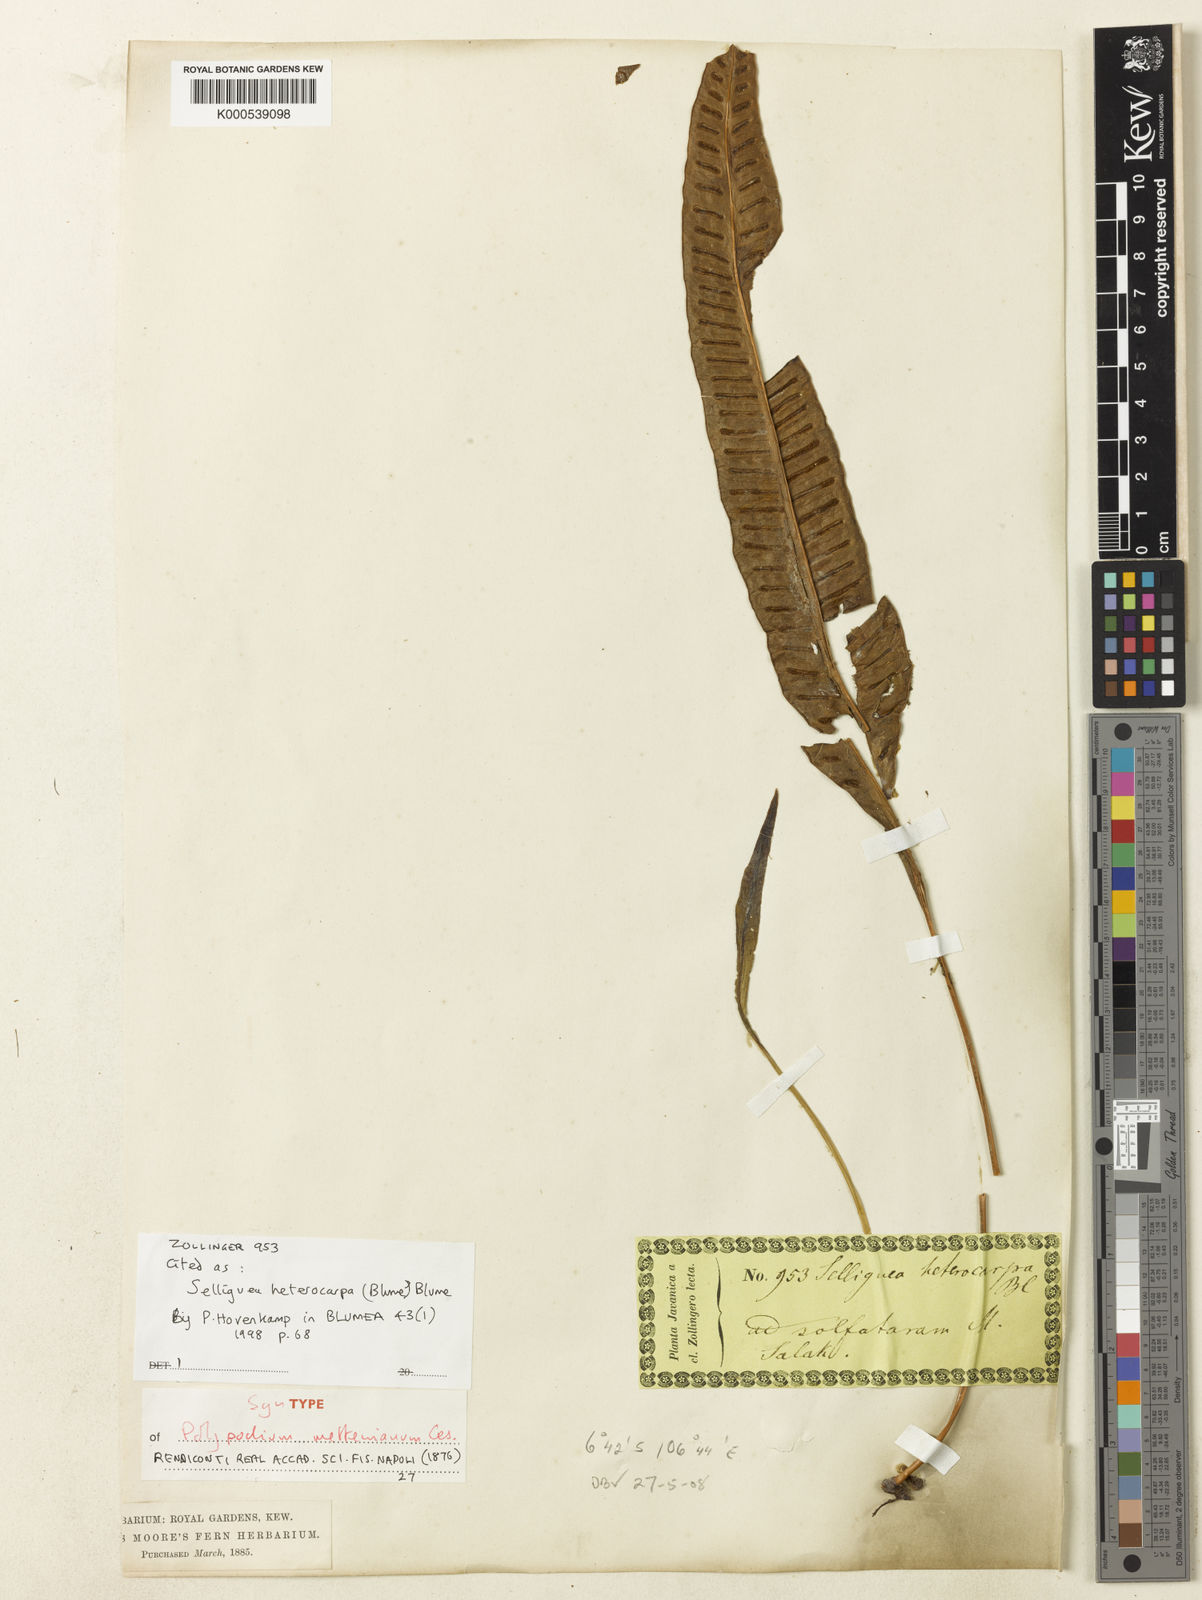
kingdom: Plantae
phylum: Tracheophyta
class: Polypodiopsida
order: Polypodiales
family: Polypodiaceae
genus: Selliguea
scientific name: Selliguea heterocarpa
